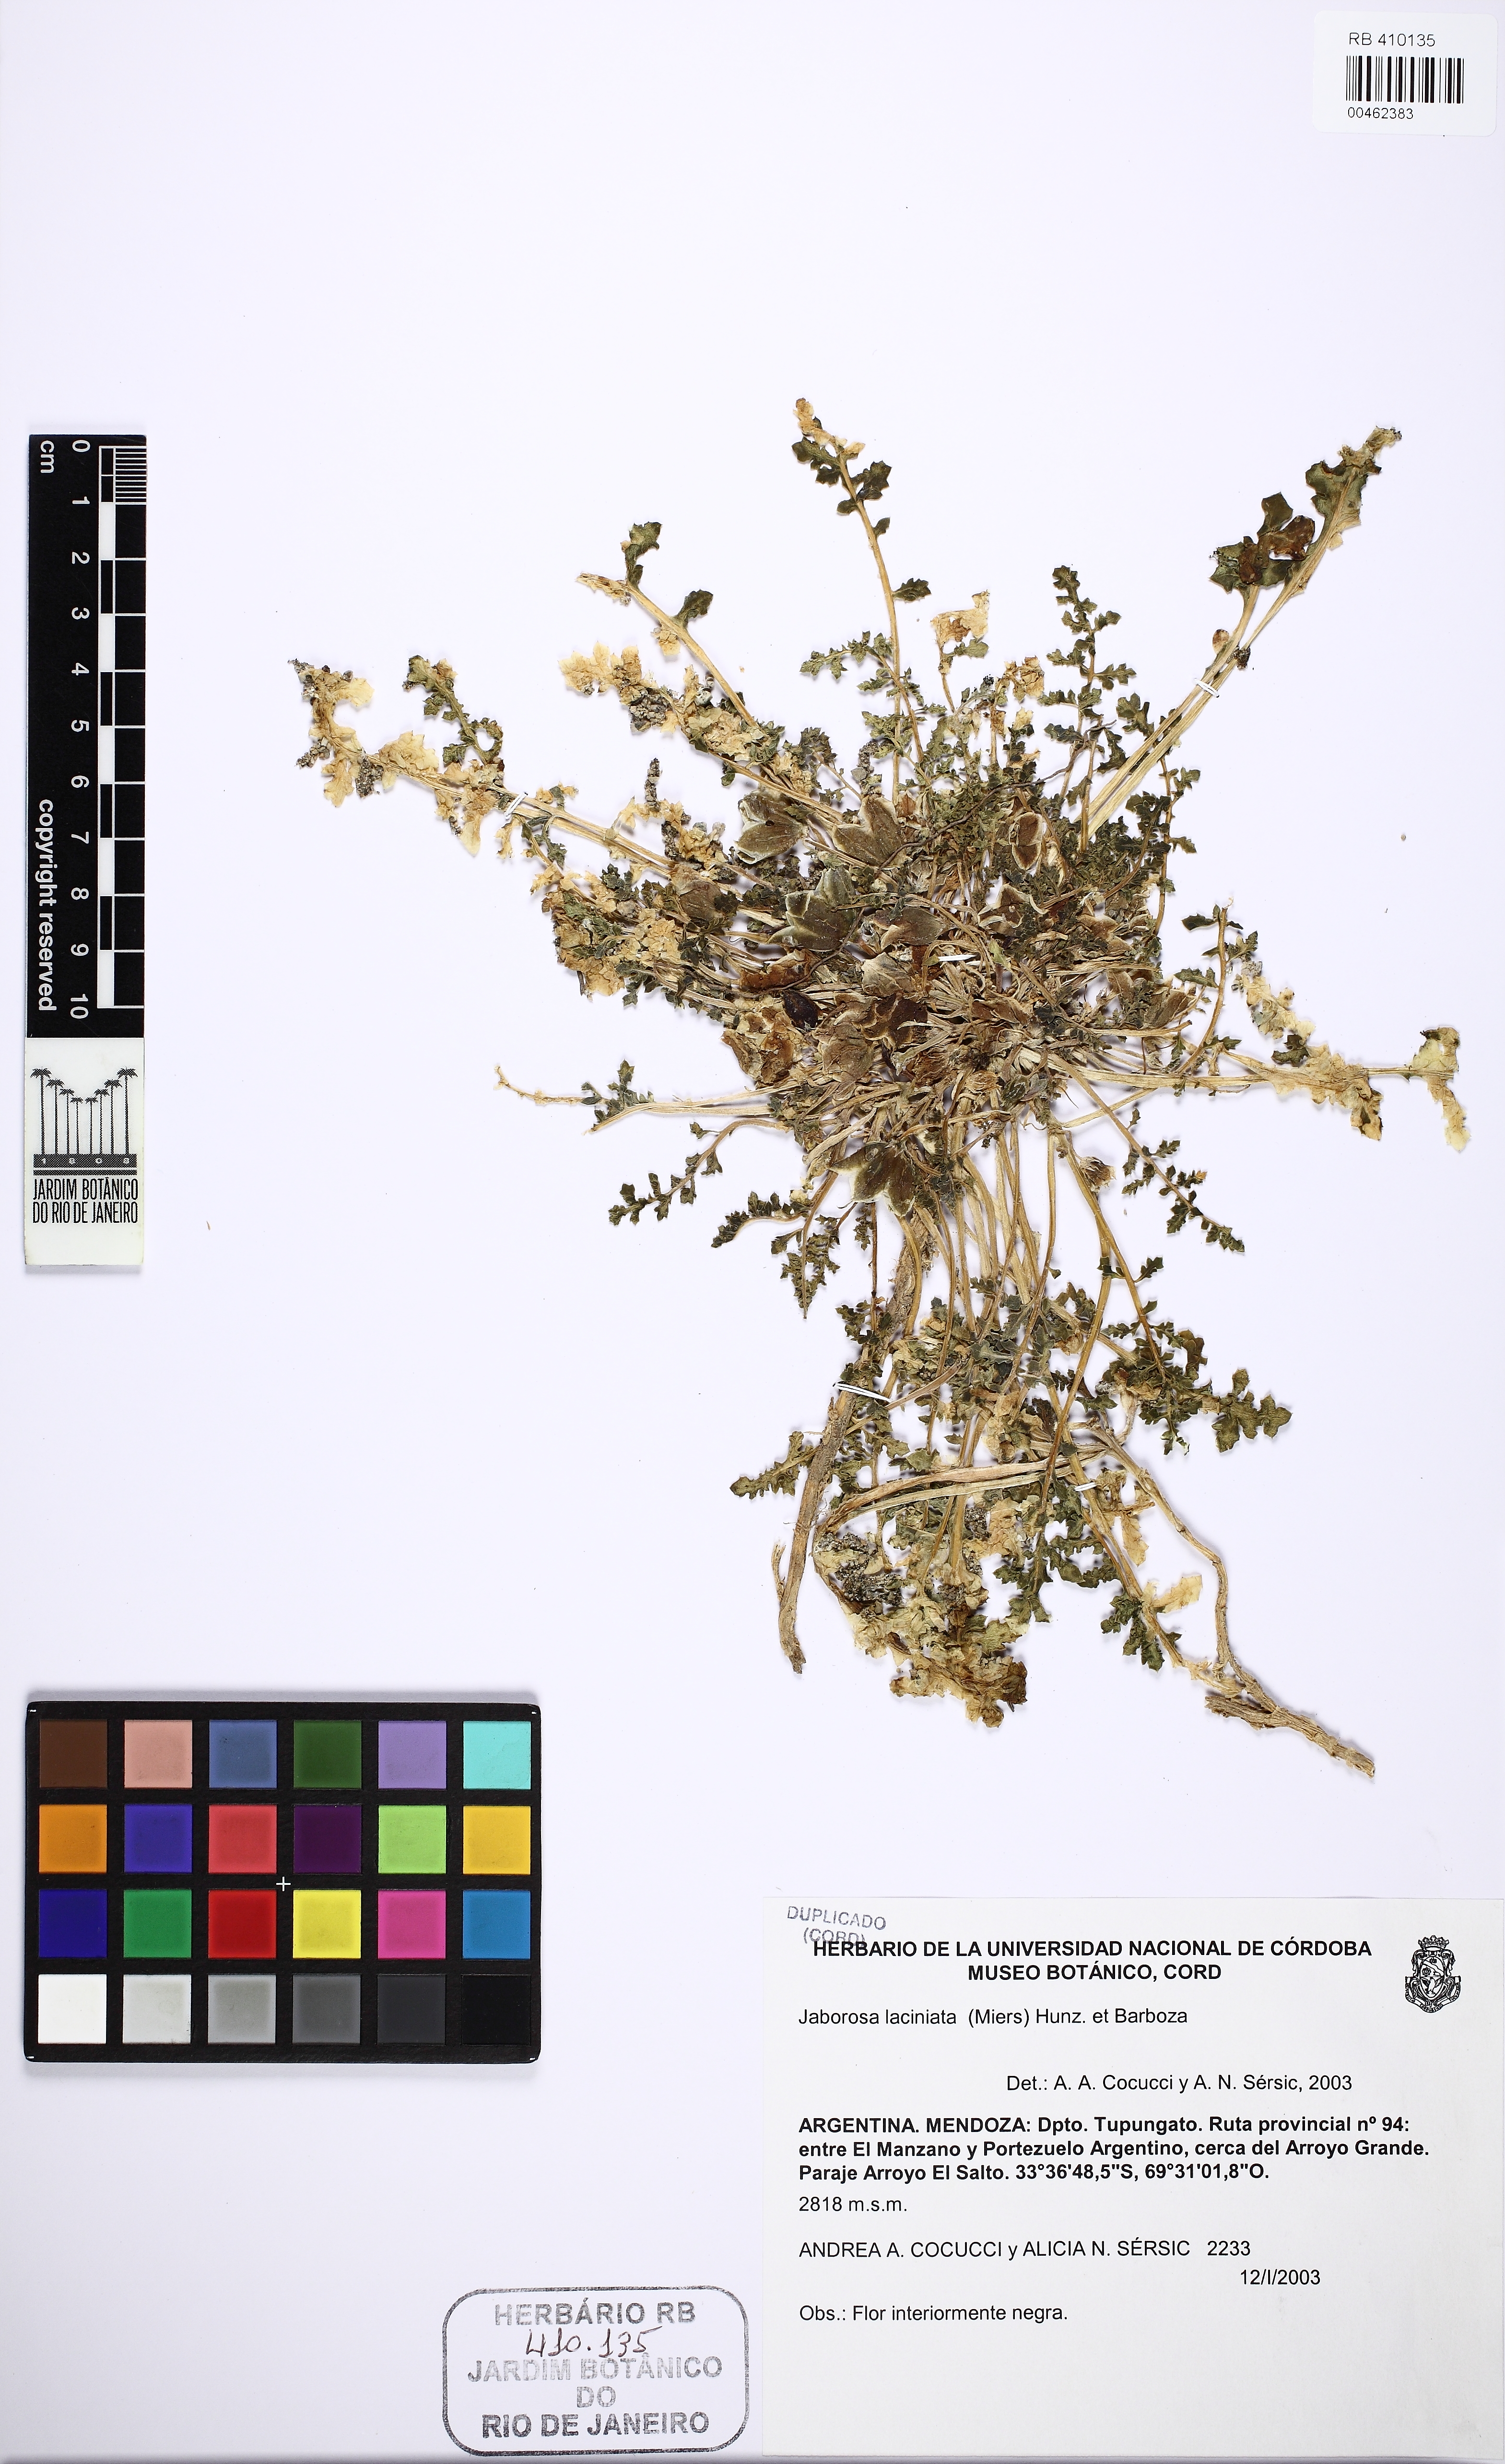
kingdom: Plantae
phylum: Tracheophyta
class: Magnoliopsida
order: Solanales
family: Solanaceae
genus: Jaborosa
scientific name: Jaborosa laciniata
